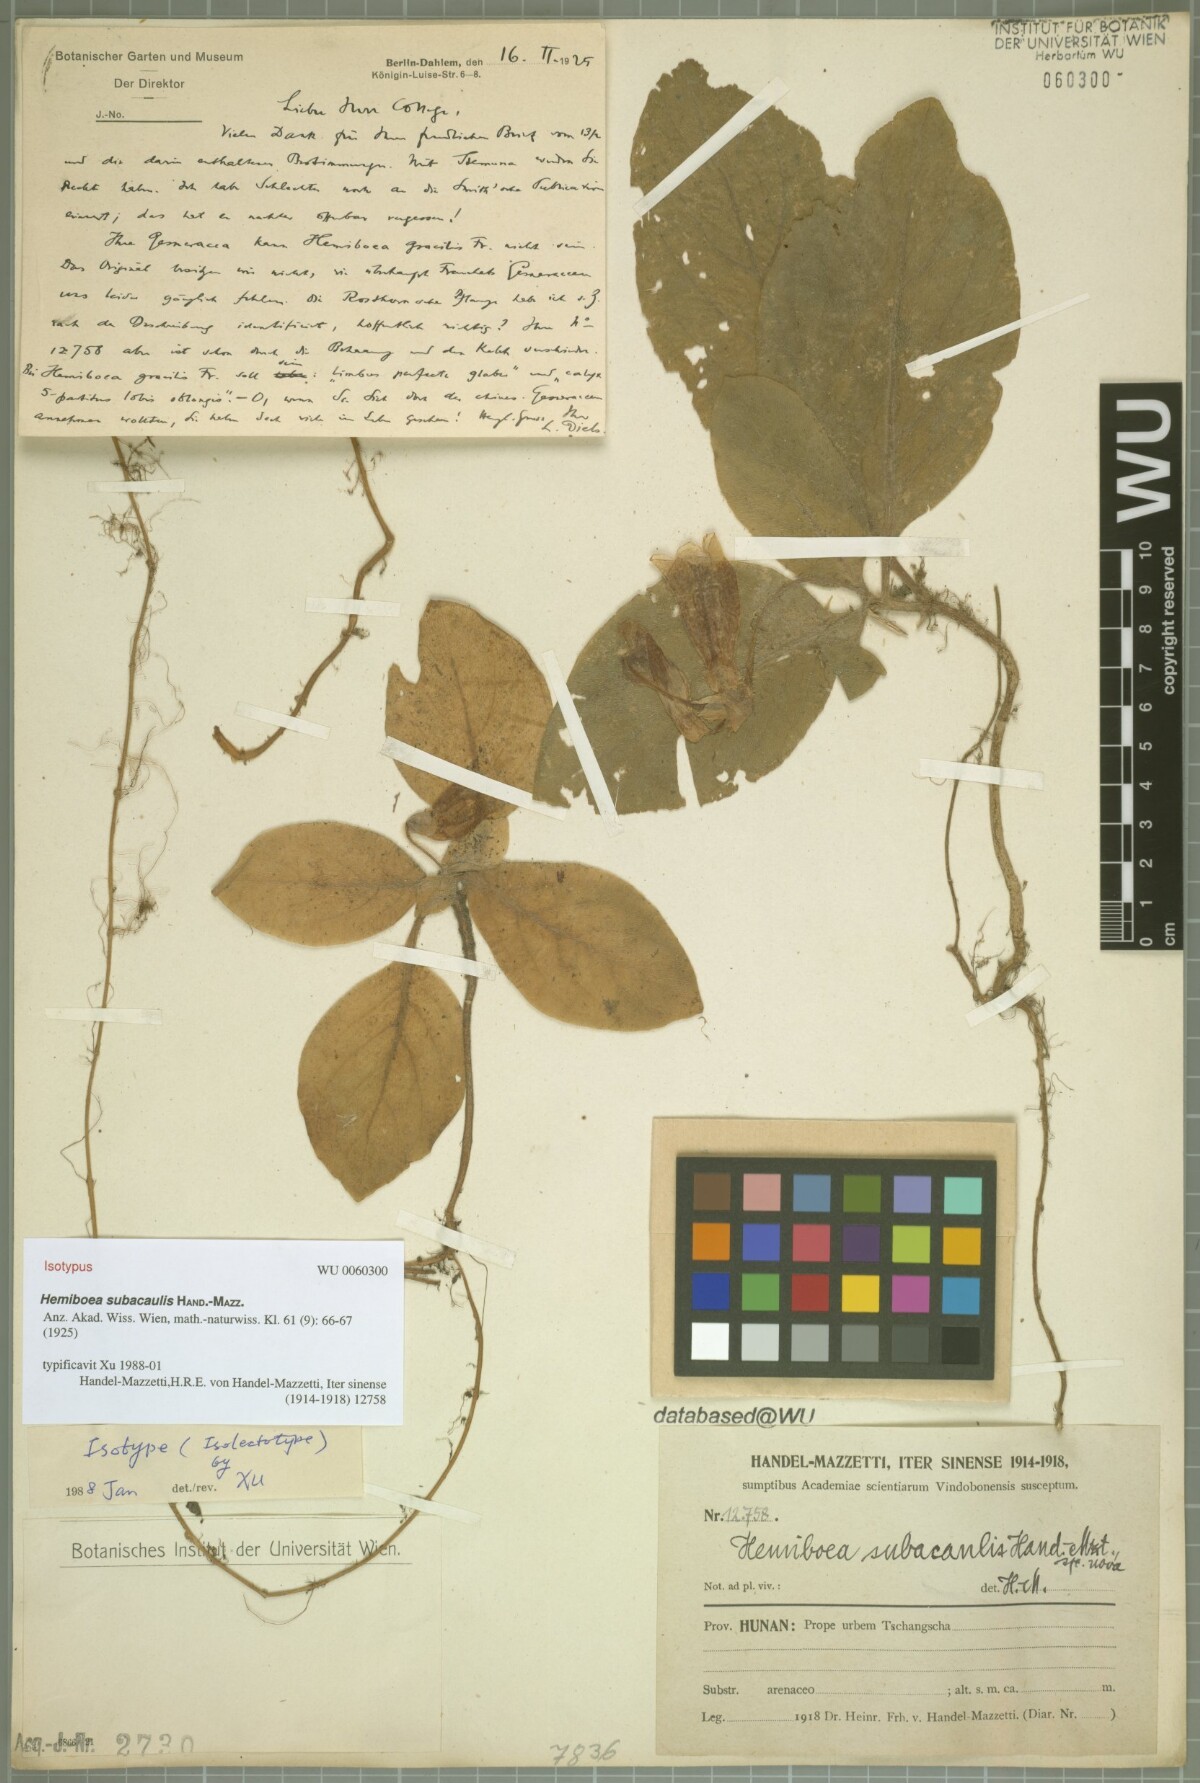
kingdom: Plantae
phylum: Tracheophyta
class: Magnoliopsida
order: Lamiales
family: Gesneriaceae
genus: Hemiboea
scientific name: Hemiboea subacaulis
